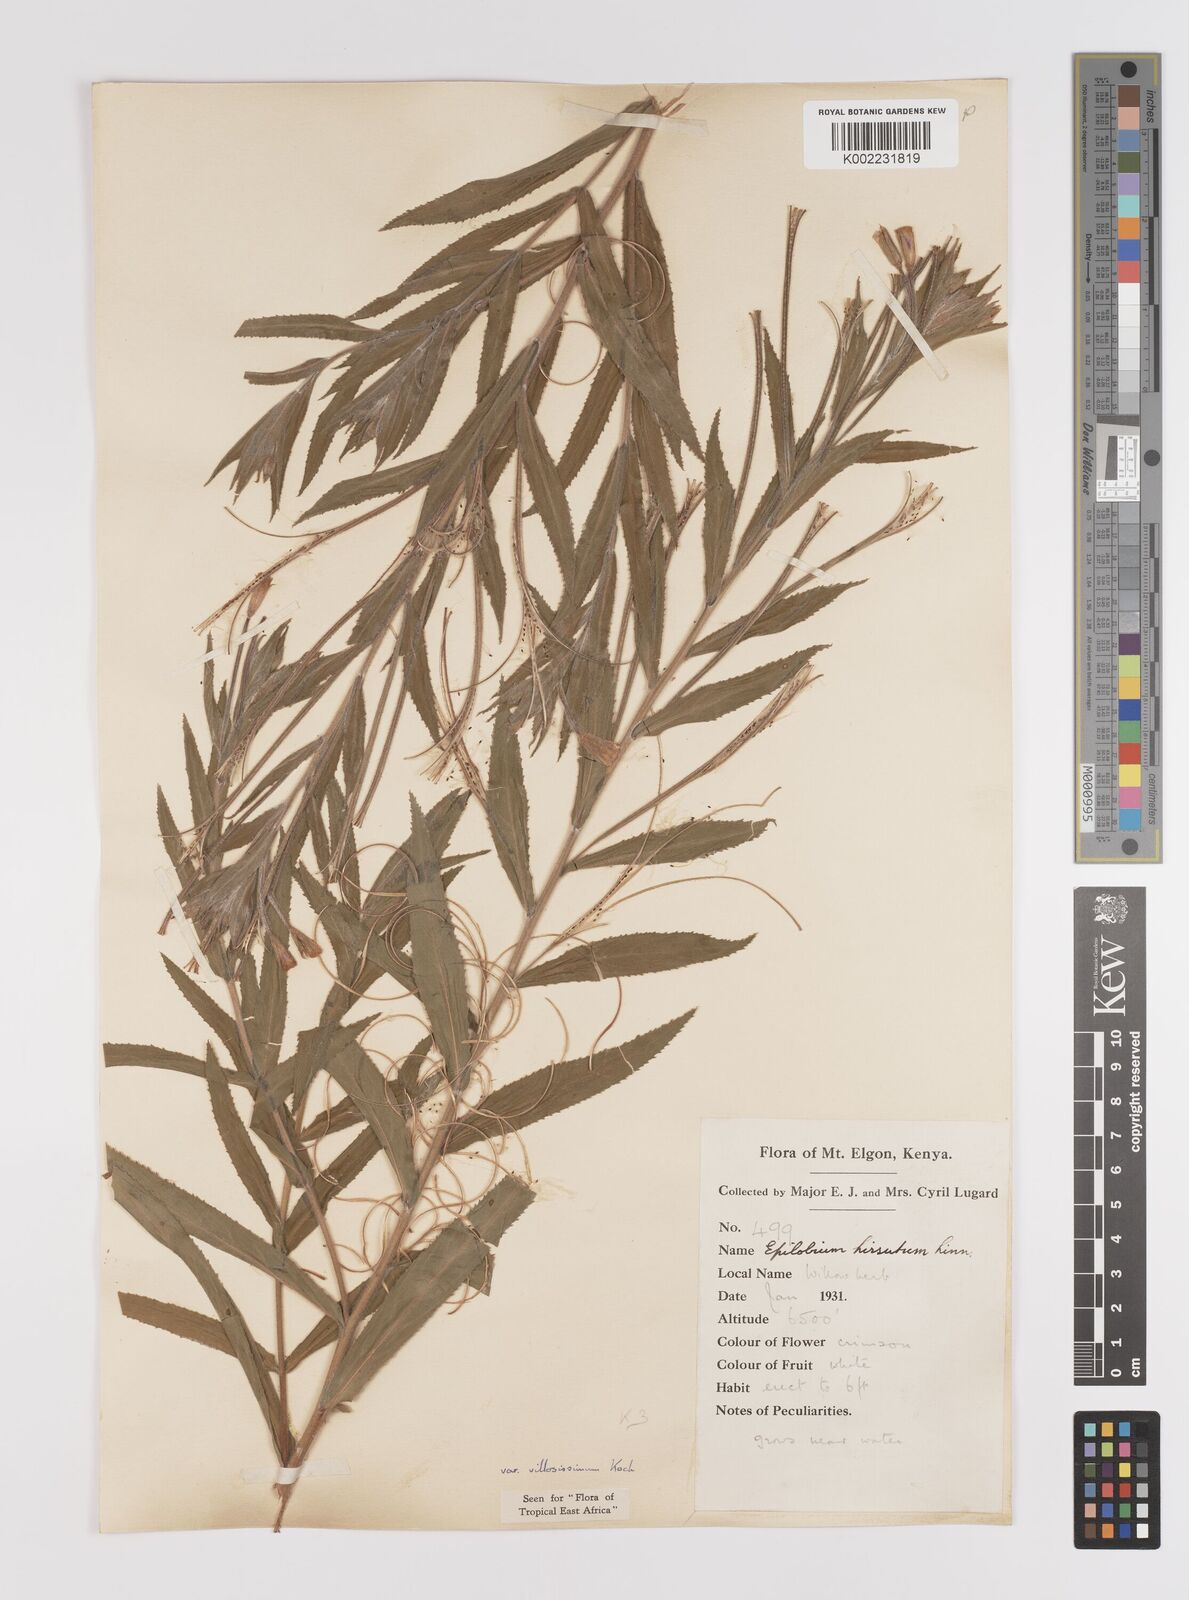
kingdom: Plantae
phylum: Tracheophyta
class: Magnoliopsida
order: Myrtales
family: Onagraceae
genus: Epilobium
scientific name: Epilobium hirsutum
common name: Great willowherb
